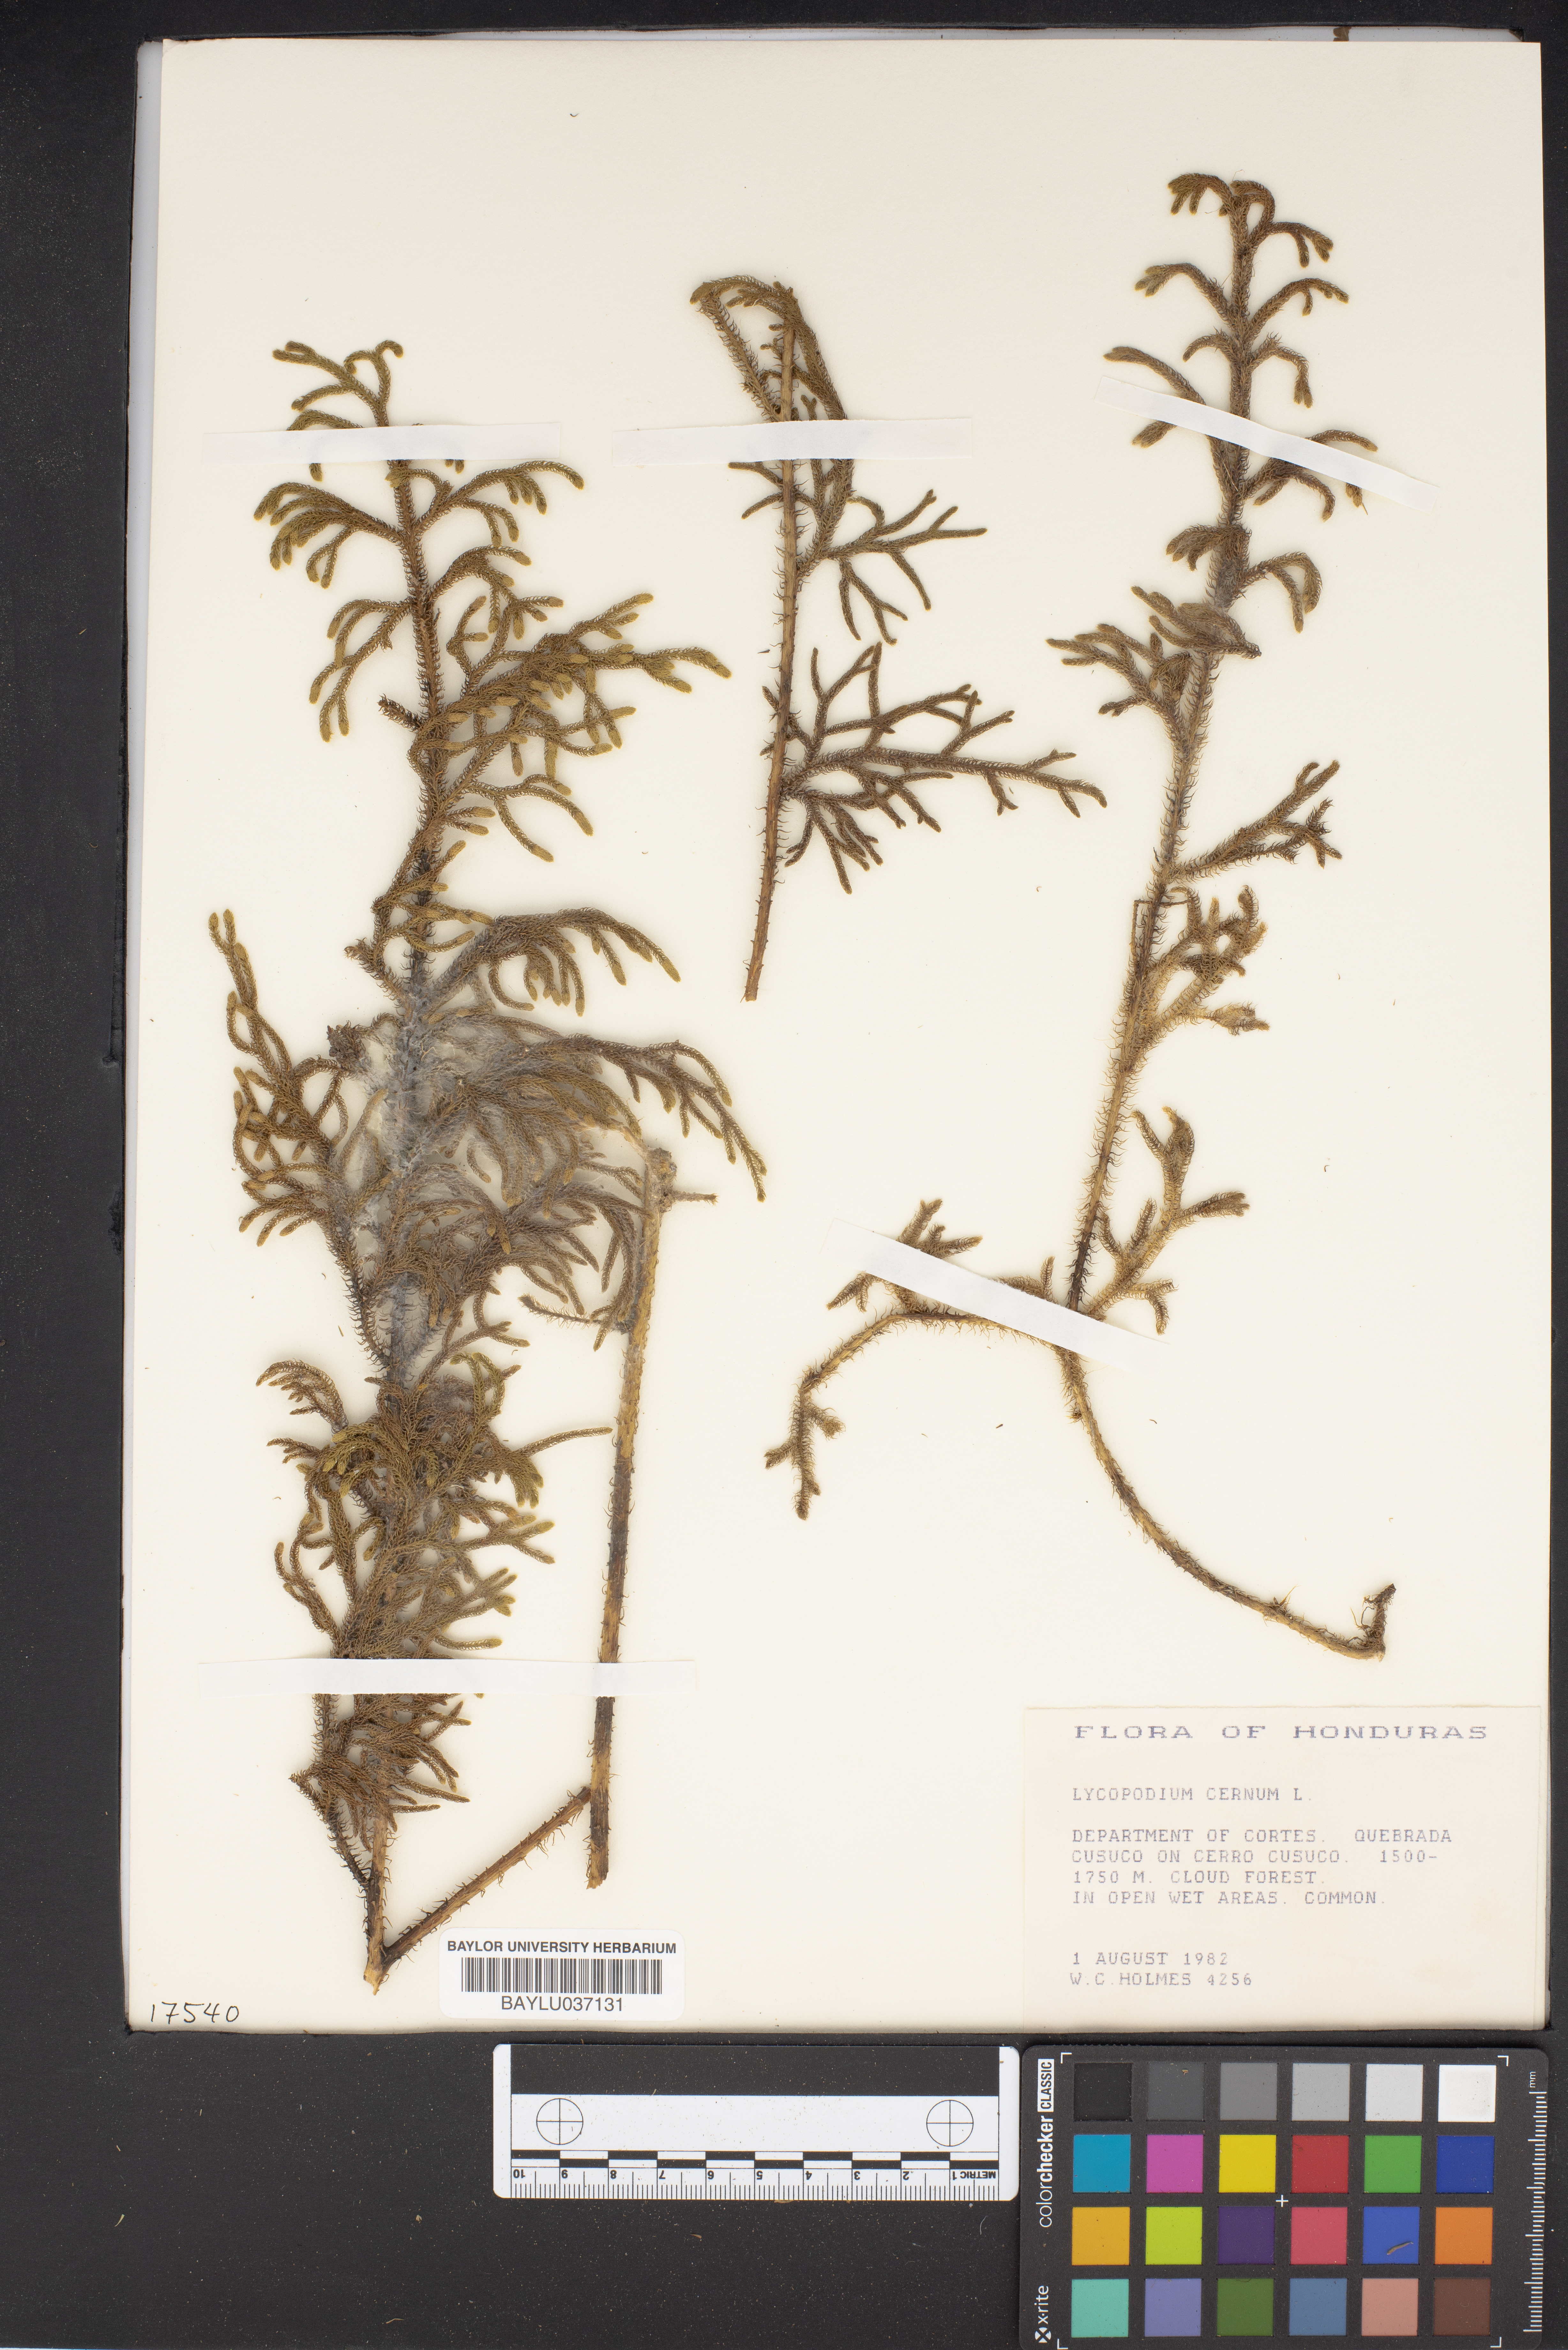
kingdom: Plantae
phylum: Tracheophyta
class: Lycopodiopsida
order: Lycopodiales
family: Lycopodiaceae
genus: Palhinhaea
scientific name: Palhinhaea cernua
